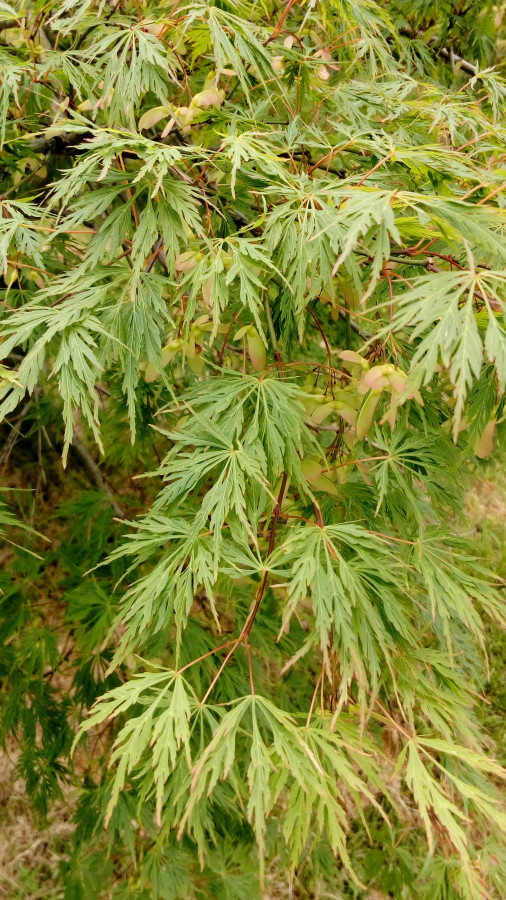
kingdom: Plantae
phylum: Tracheophyta
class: Magnoliopsida
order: Sapindales
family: Sapindaceae
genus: Acer
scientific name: Acer palmatum
